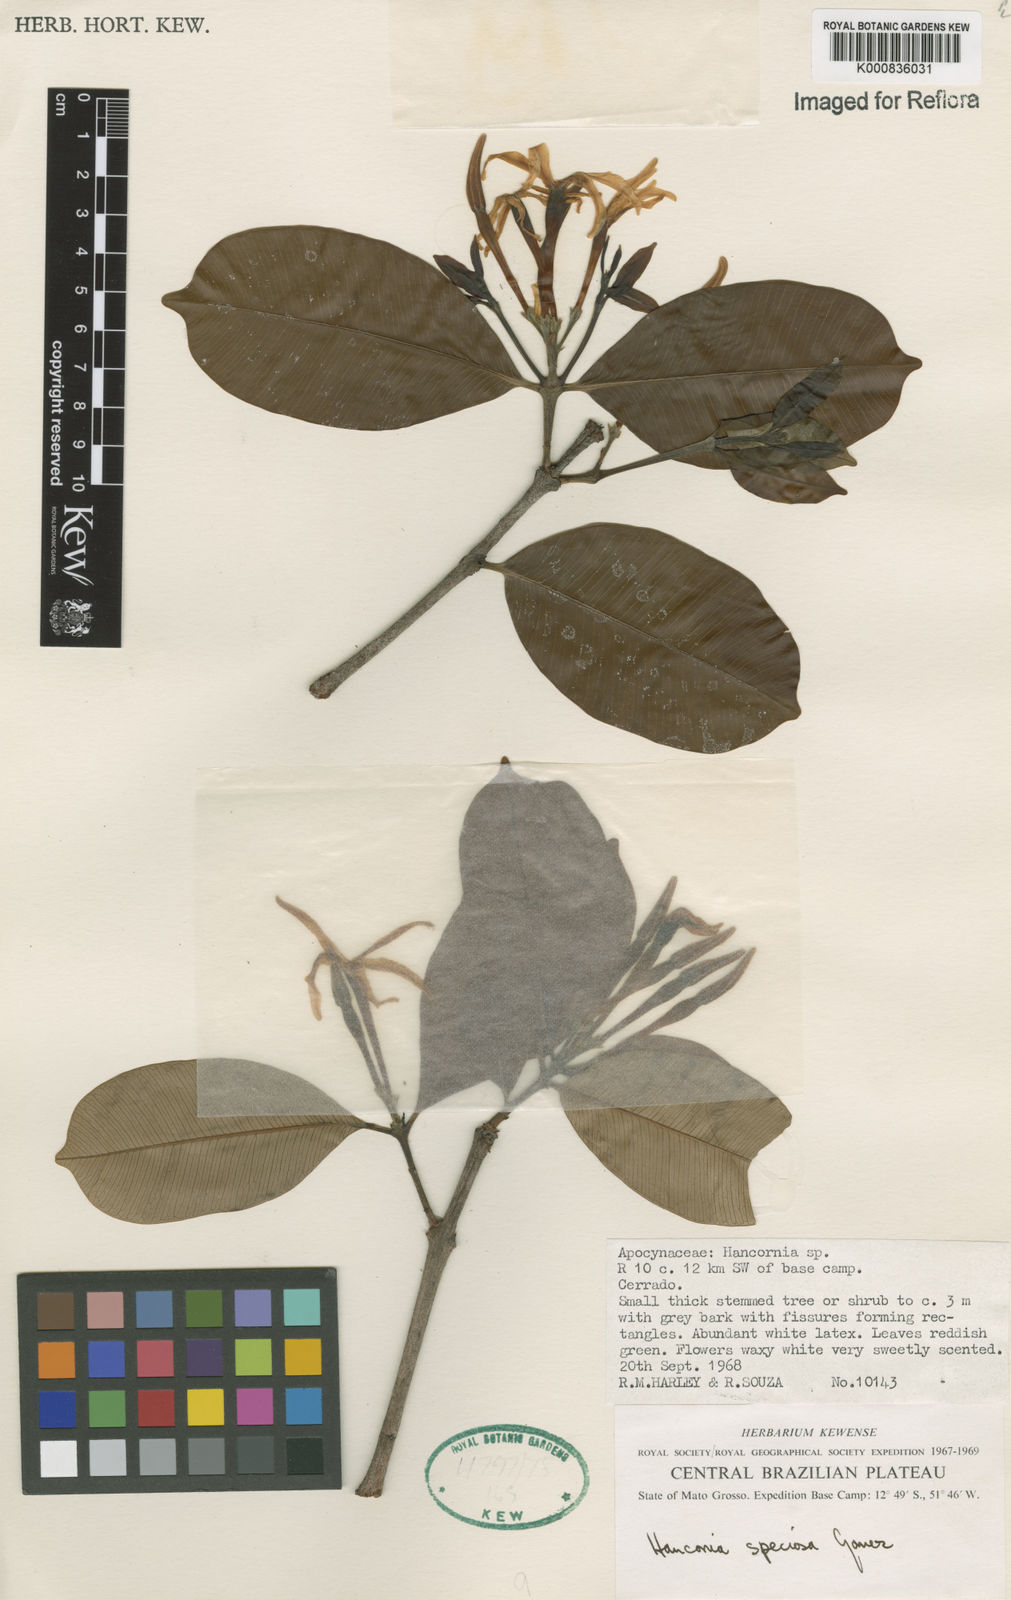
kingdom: Plantae
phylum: Tracheophyta
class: Magnoliopsida
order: Gentianales
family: Apocynaceae
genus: Hancornia
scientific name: Hancornia speciosa
